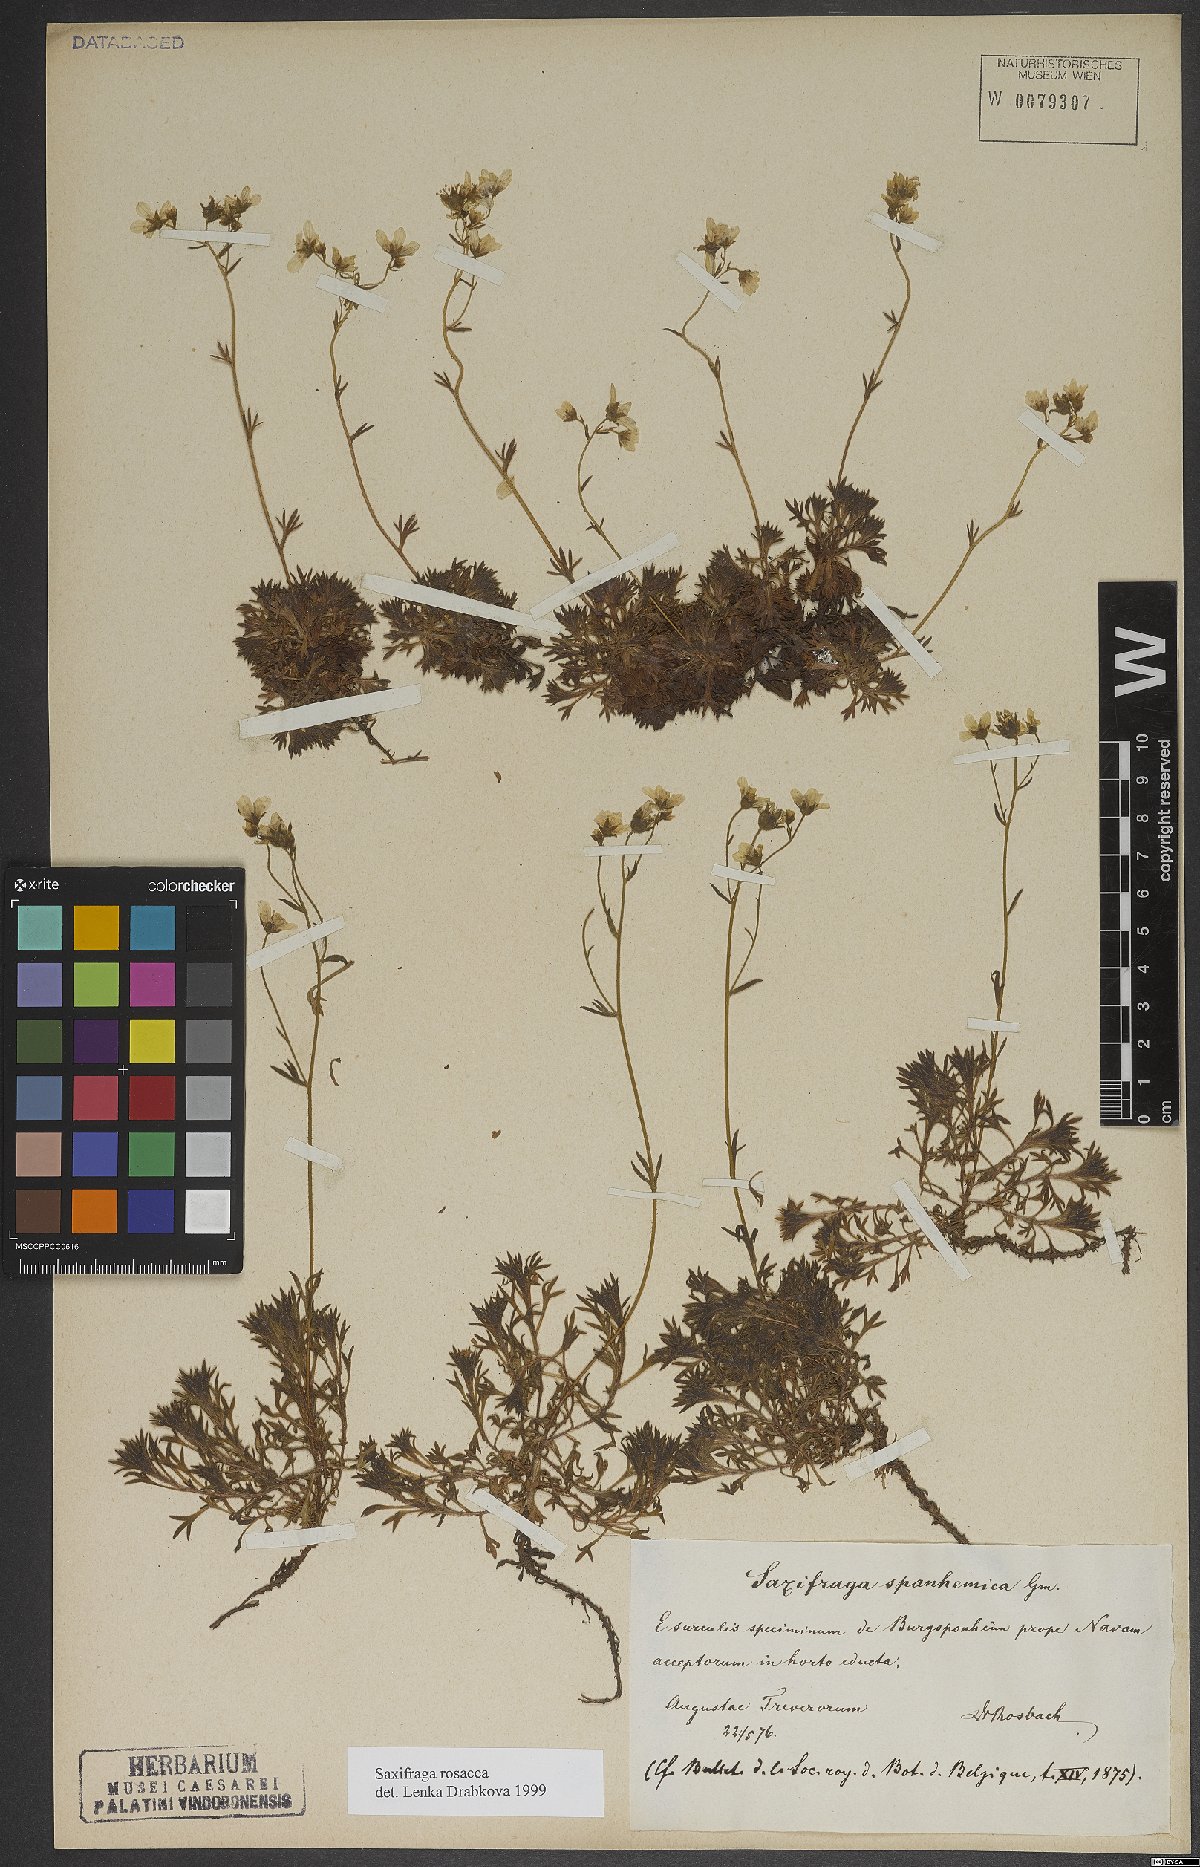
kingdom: Plantae
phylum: Tracheophyta
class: Magnoliopsida
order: Saxifragales
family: Saxifragaceae
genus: Saxifraga
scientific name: Saxifraga rosacea
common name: Irish saxifrage
